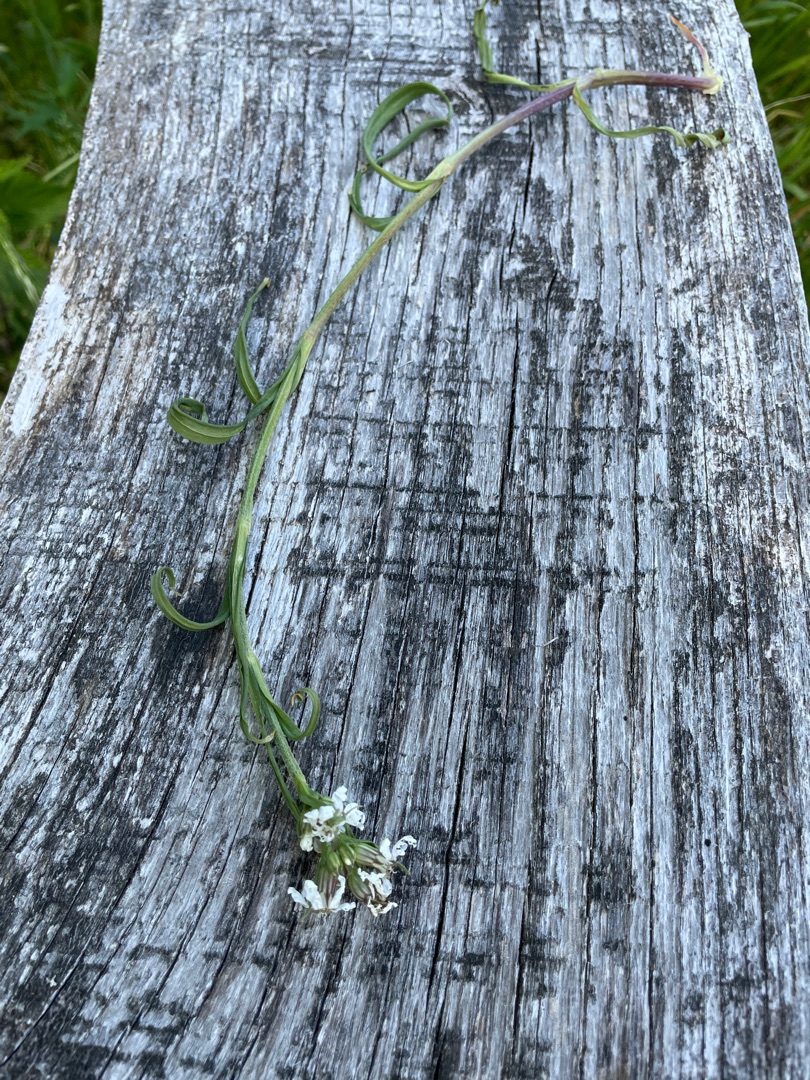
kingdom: Plantae
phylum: Tracheophyta
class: Magnoliopsida
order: Caryophyllales
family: Caryophyllaceae
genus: Viscaria
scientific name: Viscaria vulgaris
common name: Tjærenellike
